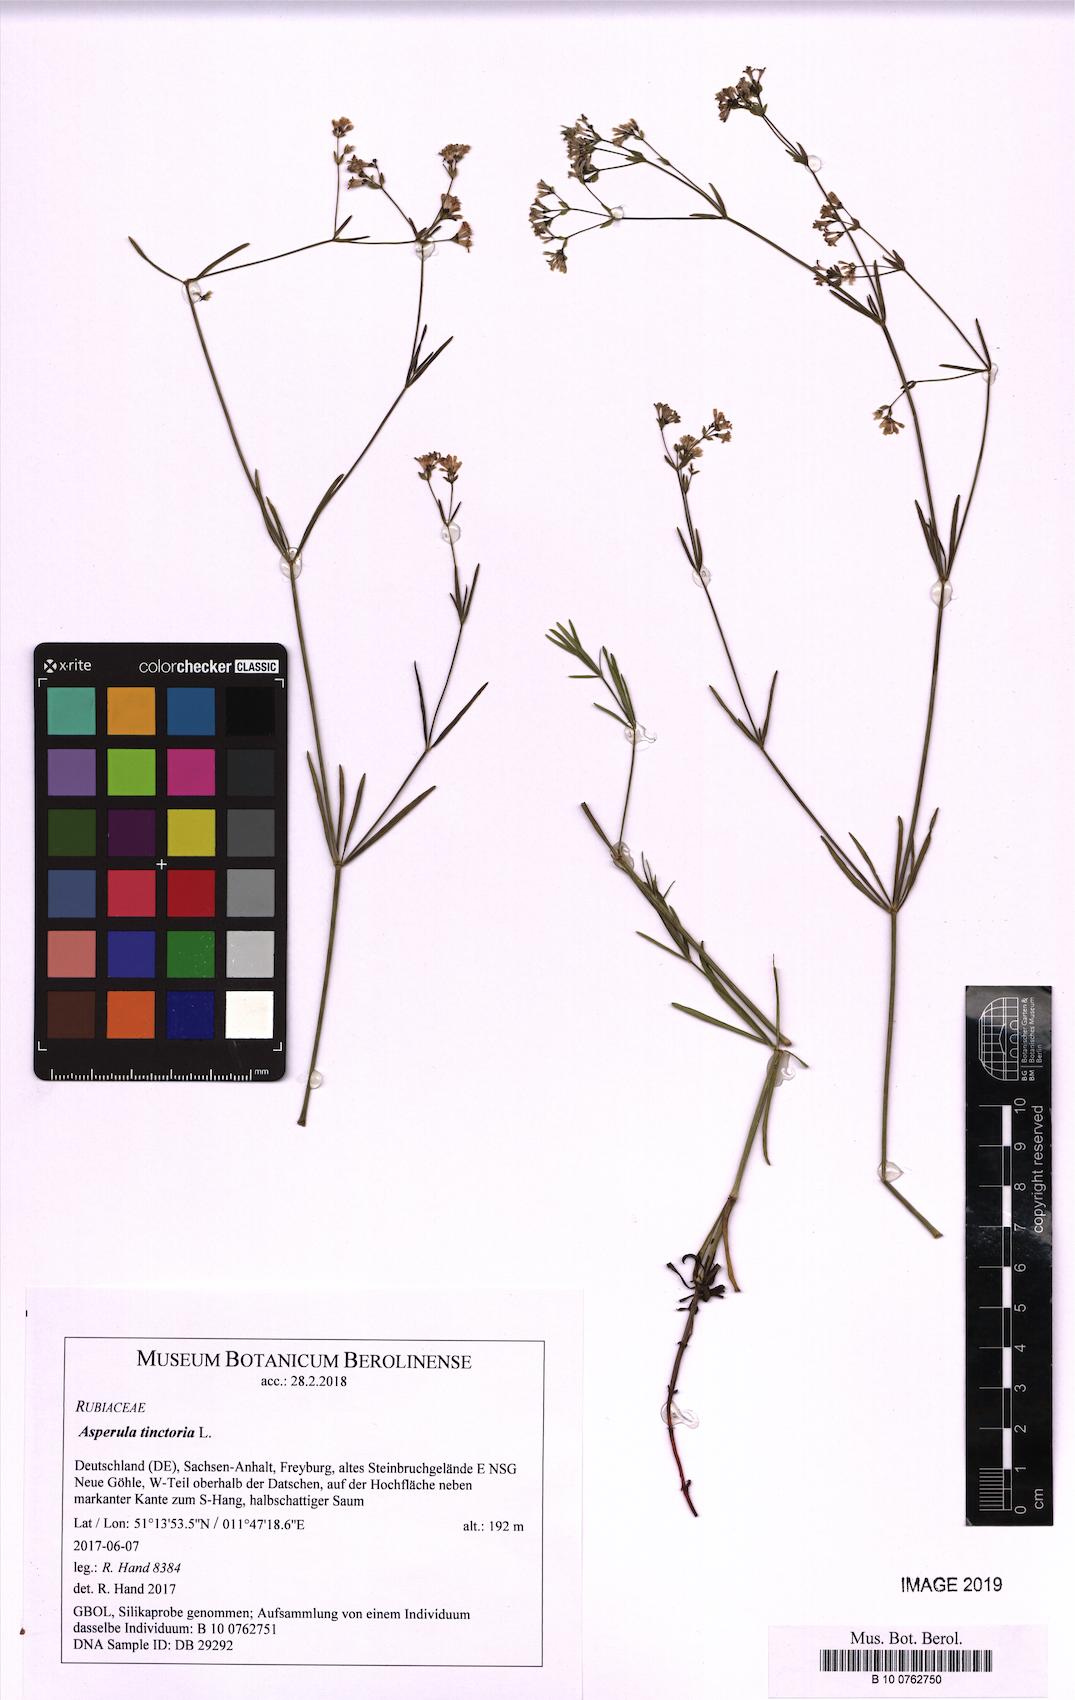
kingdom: Plantae
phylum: Tracheophyta
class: Magnoliopsida
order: Gentianales
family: Rubiaceae
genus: Asperula
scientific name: Asperula tinctoria
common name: Dyer's woodruff
